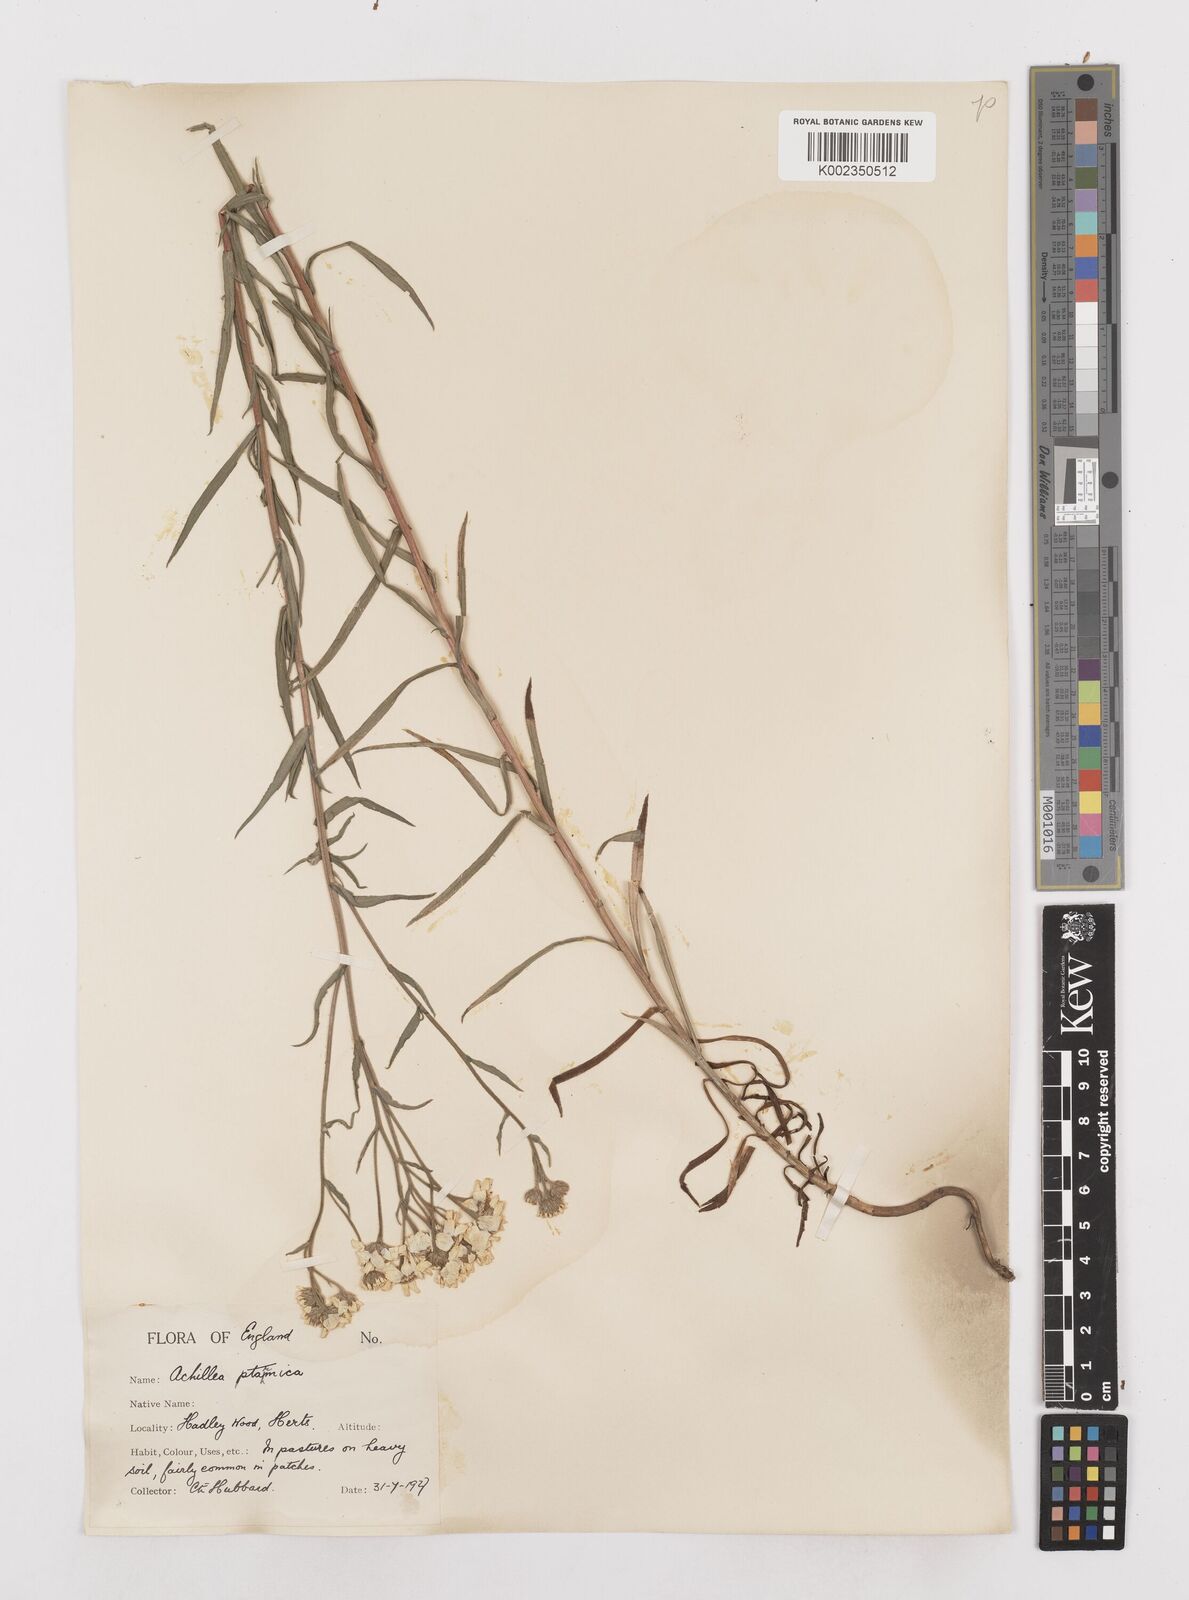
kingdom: Plantae
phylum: Tracheophyta
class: Magnoliopsida
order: Asterales
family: Asteraceae
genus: Achillea
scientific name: Achillea ptarmica
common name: Sneezeweed
